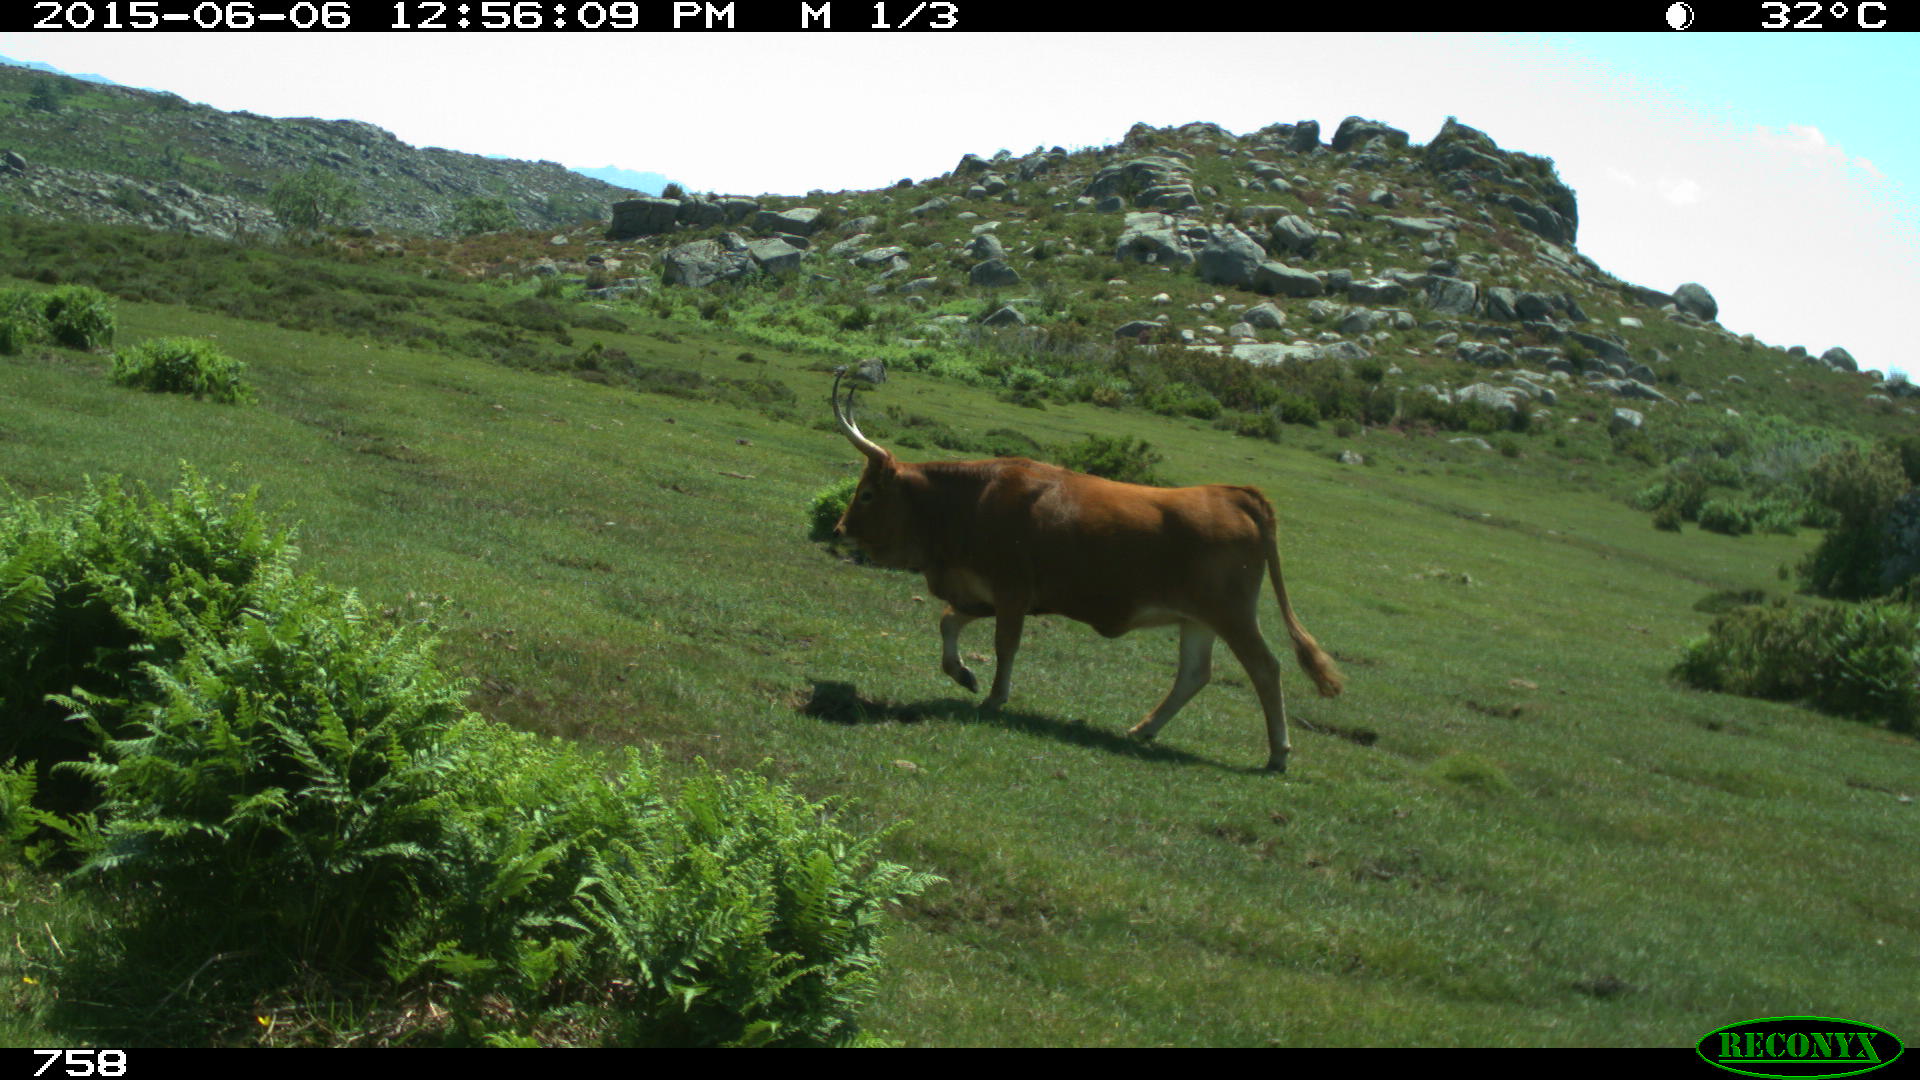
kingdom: Animalia
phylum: Chordata
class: Mammalia
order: Artiodactyla
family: Bovidae
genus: Bos
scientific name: Bos taurus
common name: Domesticated cattle
